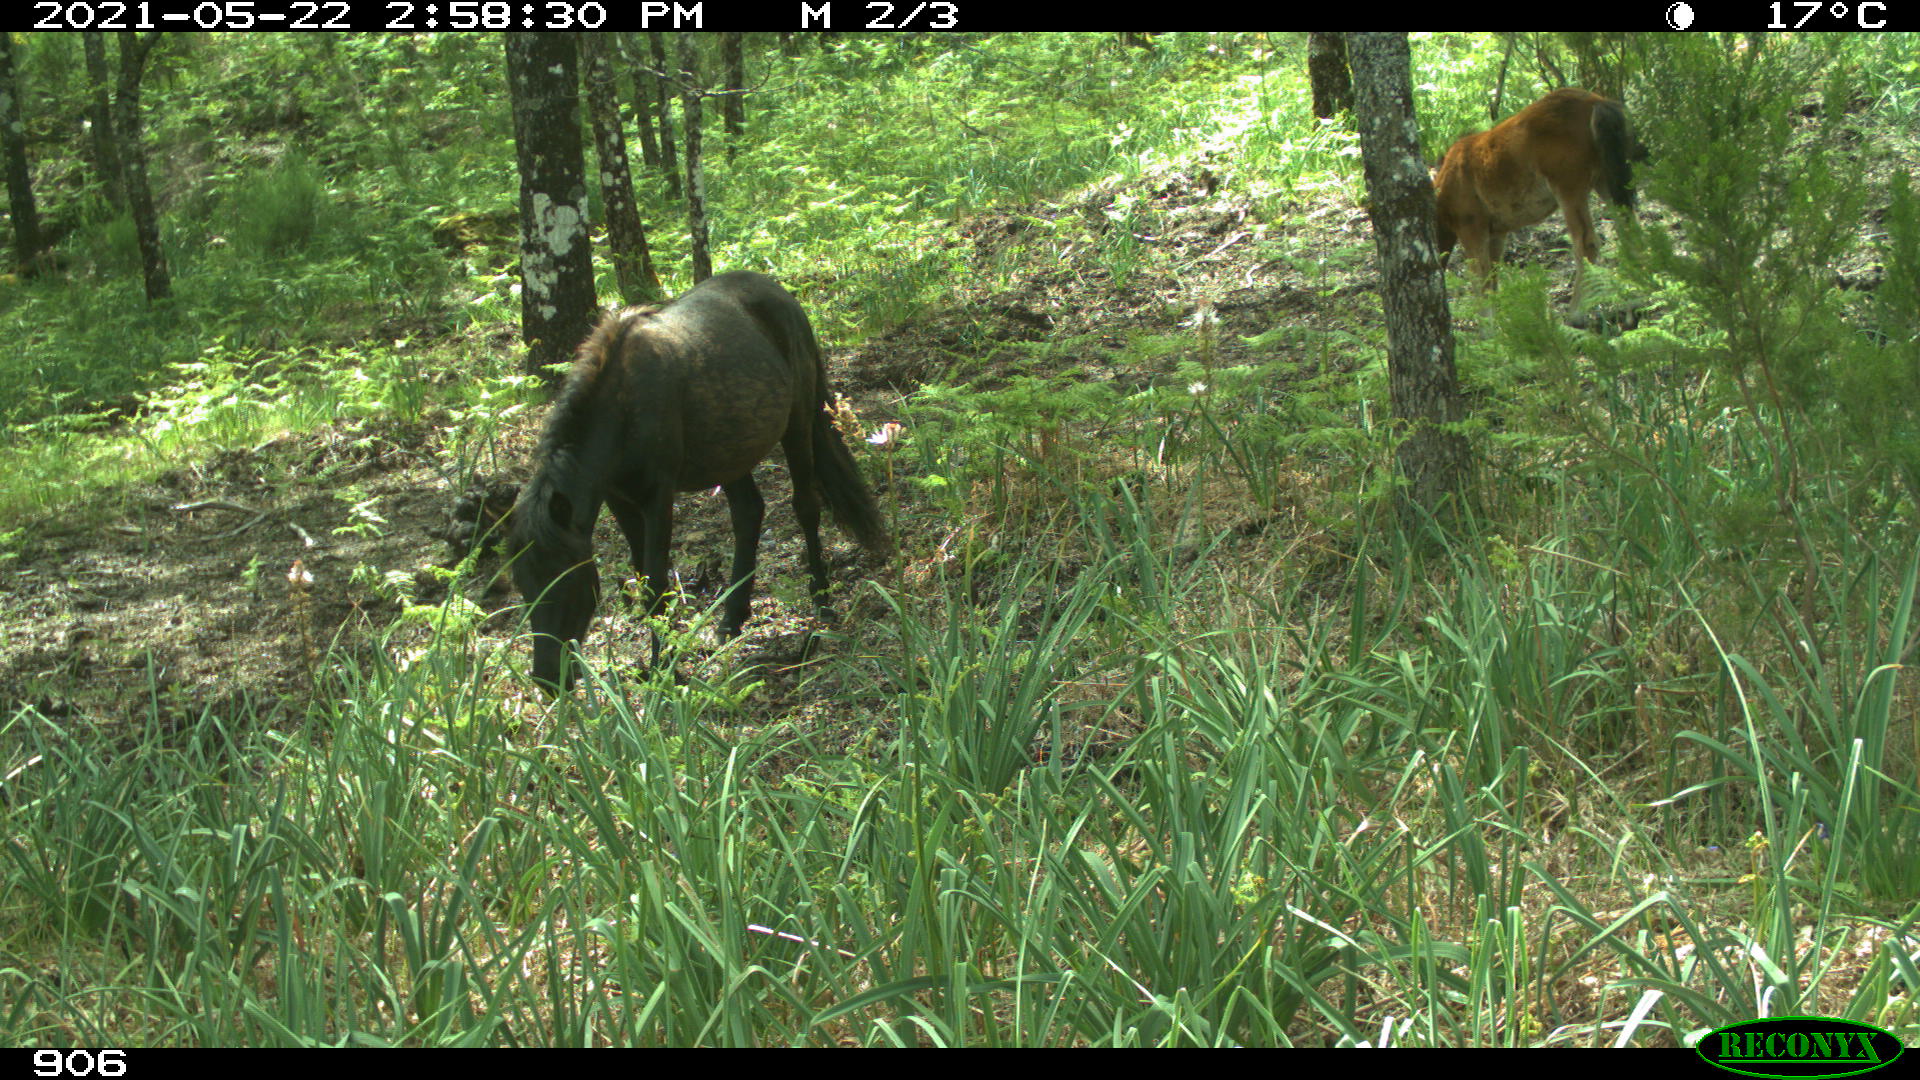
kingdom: Animalia
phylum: Chordata
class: Mammalia
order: Perissodactyla
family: Equidae
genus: Equus
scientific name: Equus caballus
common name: Horse
